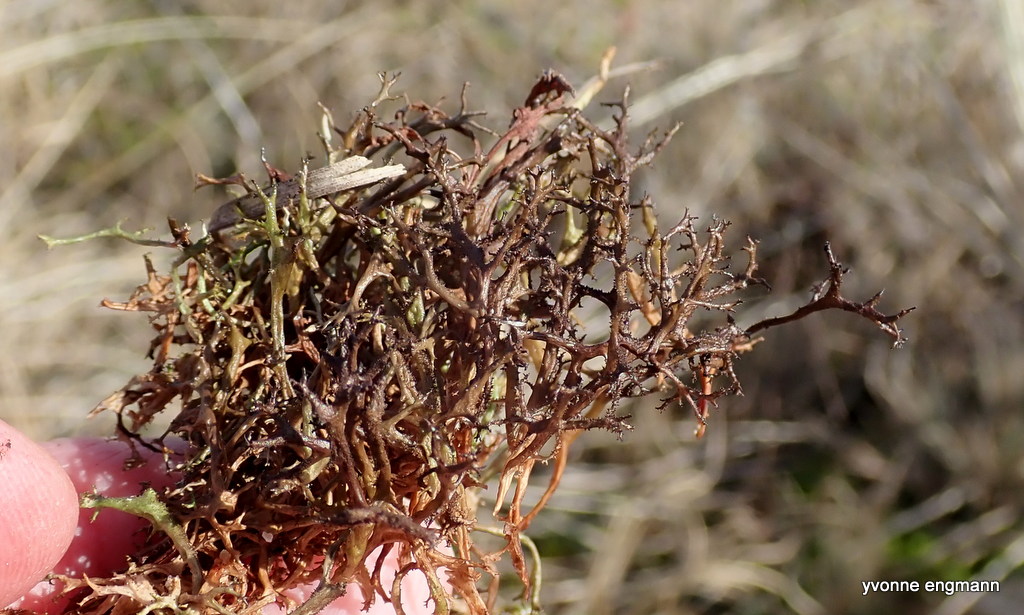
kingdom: Fungi
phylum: Ascomycota
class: Lecanoromycetes
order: Lecanorales
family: Parmeliaceae
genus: Cetraria
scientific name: Cetraria aculeata
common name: grubet tjørnelav
